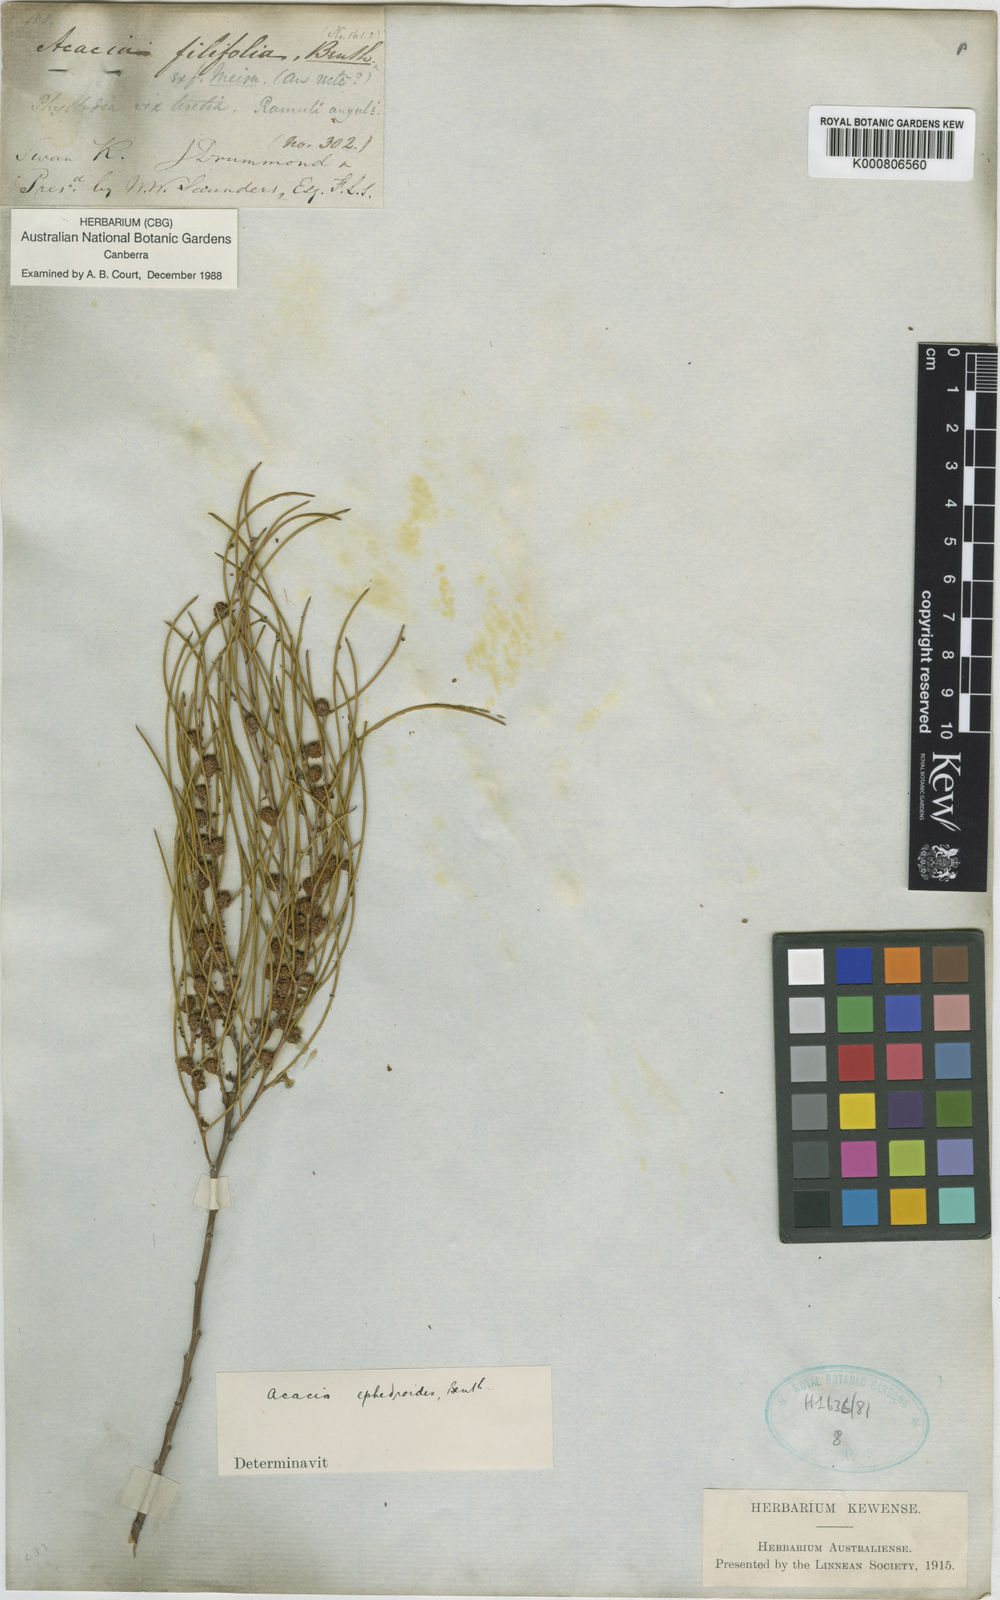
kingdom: Plantae
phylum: Tracheophyta
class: Magnoliopsida
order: Fabales
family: Fabaceae
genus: Acacia
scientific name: Acacia ephedroides
